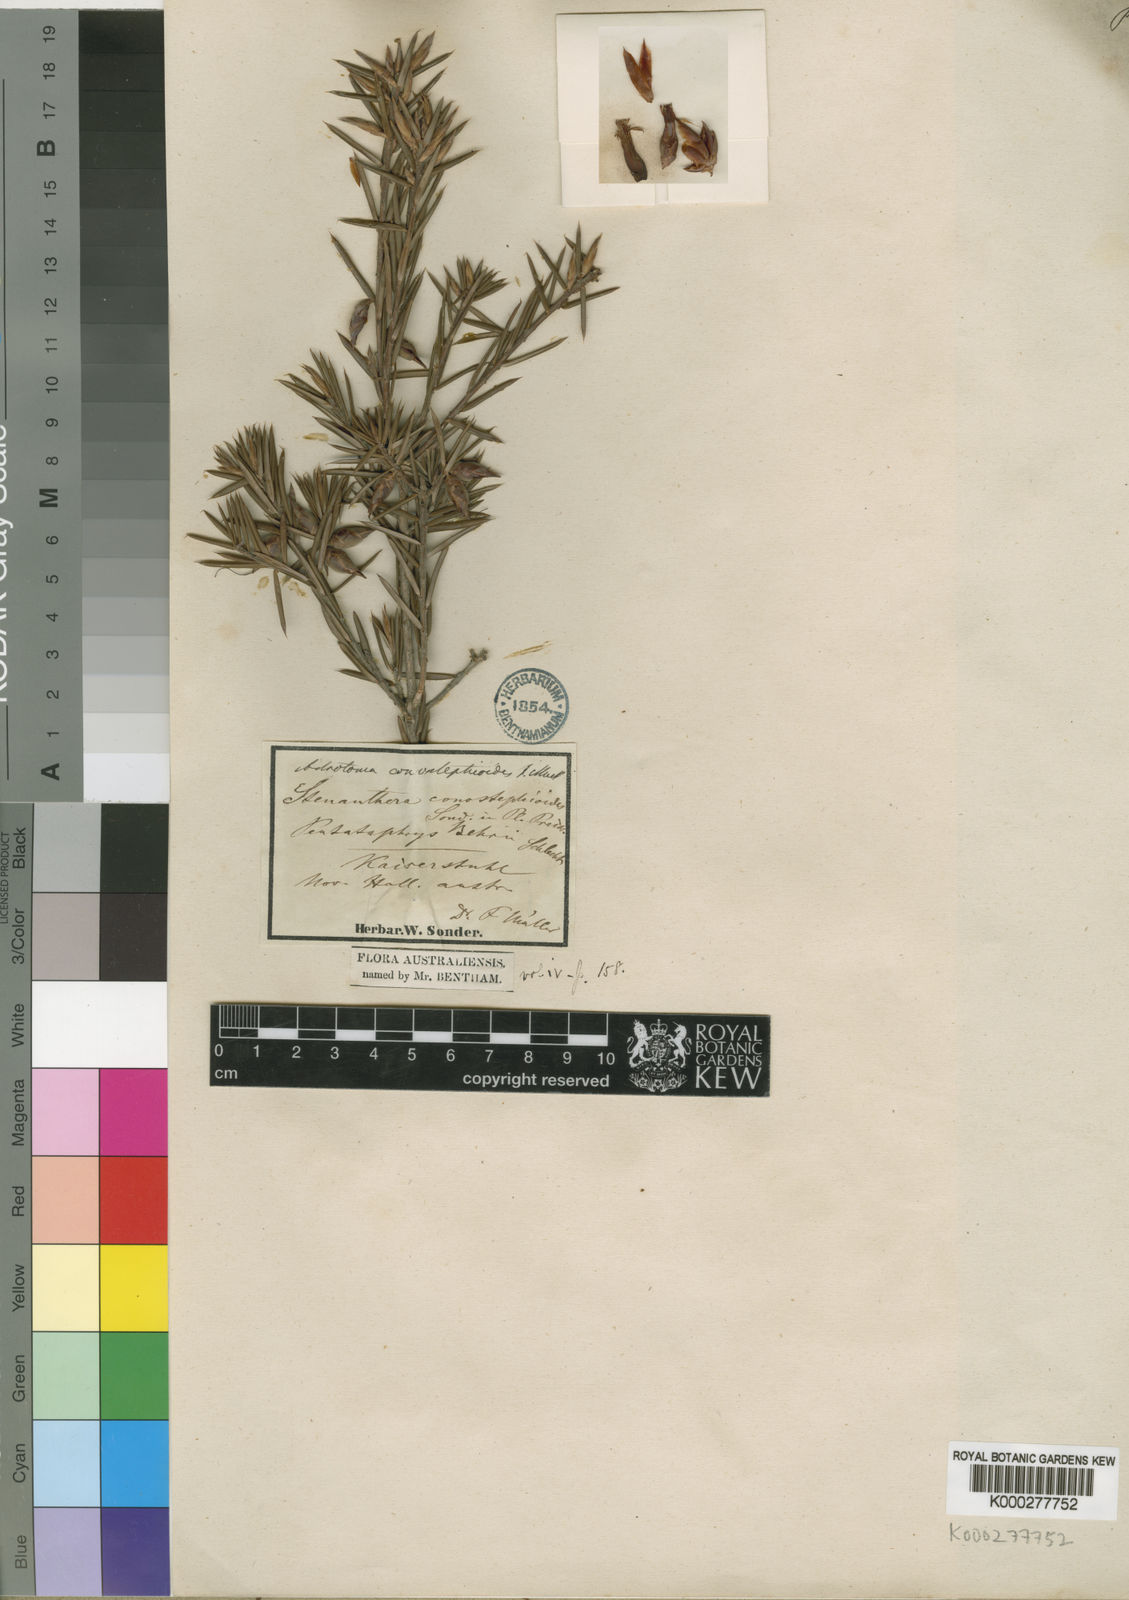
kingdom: Plantae
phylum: Tracheophyta
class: Magnoliopsida
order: Ericales
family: Ericaceae
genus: Stenanthera
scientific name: Stenanthera conostephioides
